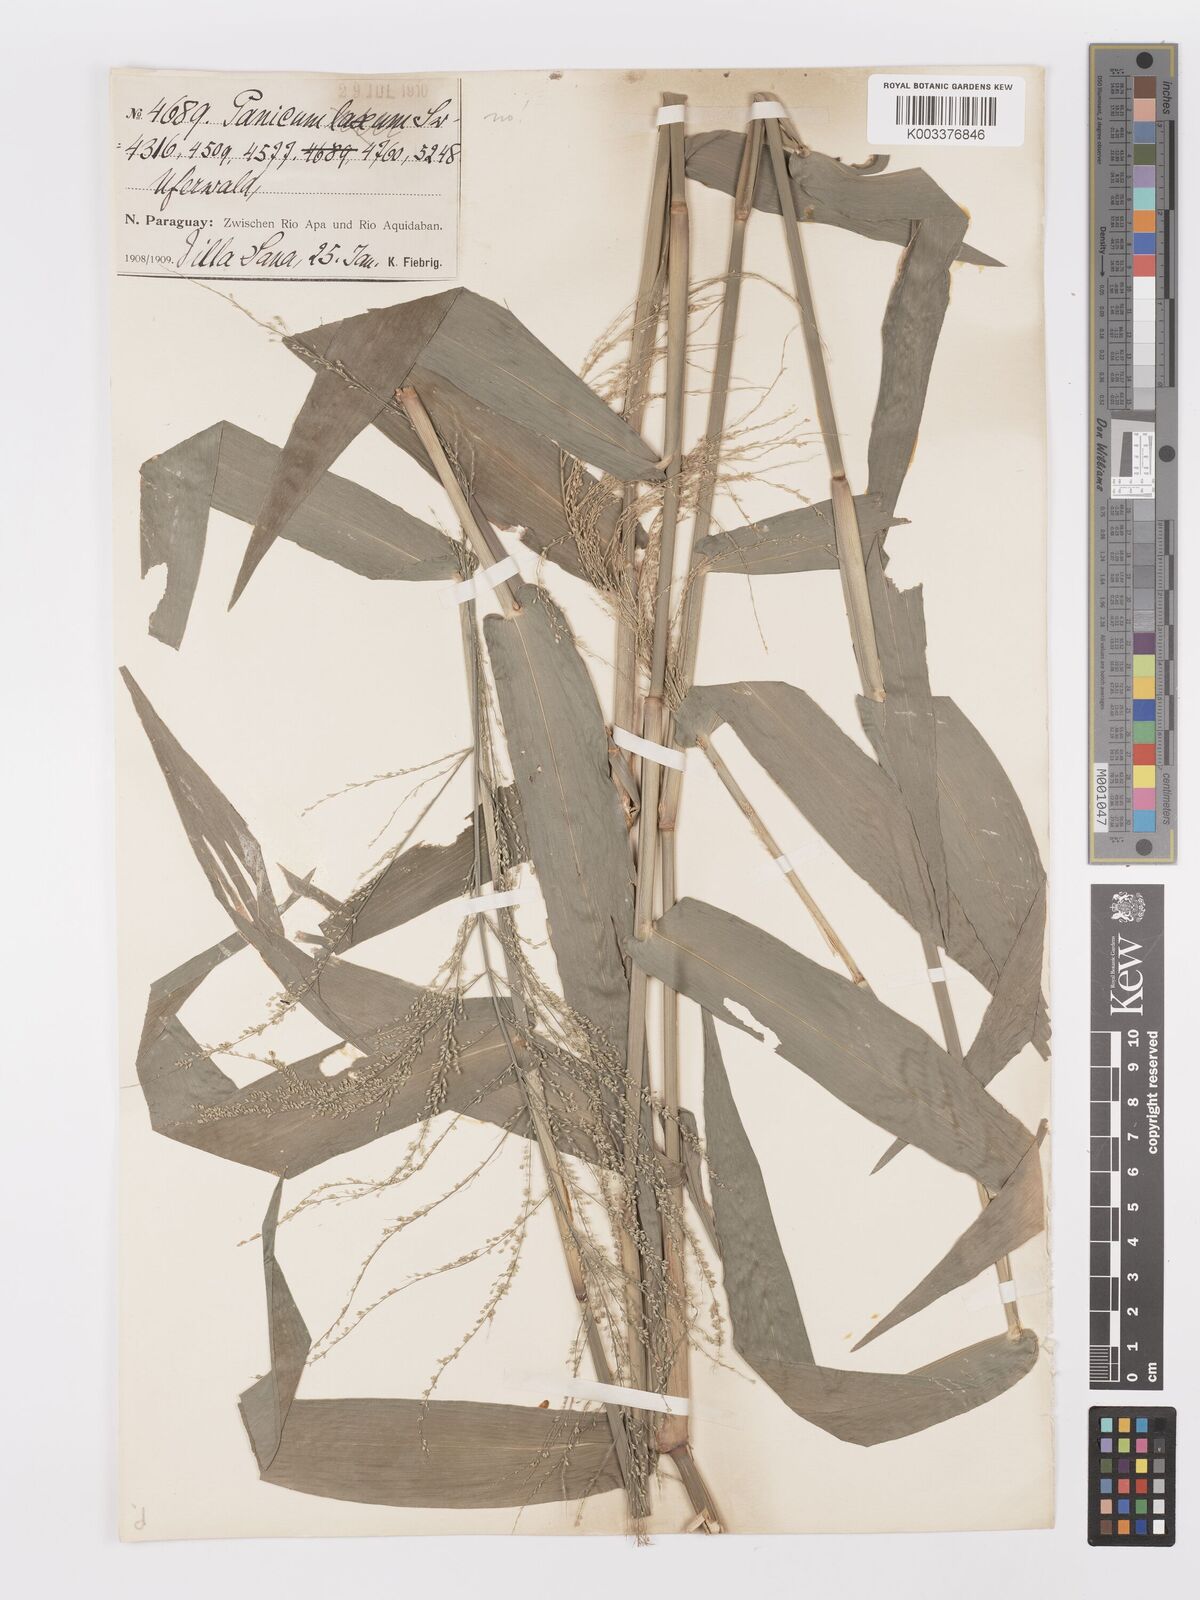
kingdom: Plantae
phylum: Tracheophyta
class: Liliopsida
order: Poales
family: Poaceae
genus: Rugoloa
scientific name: Rugoloa hylaeica
